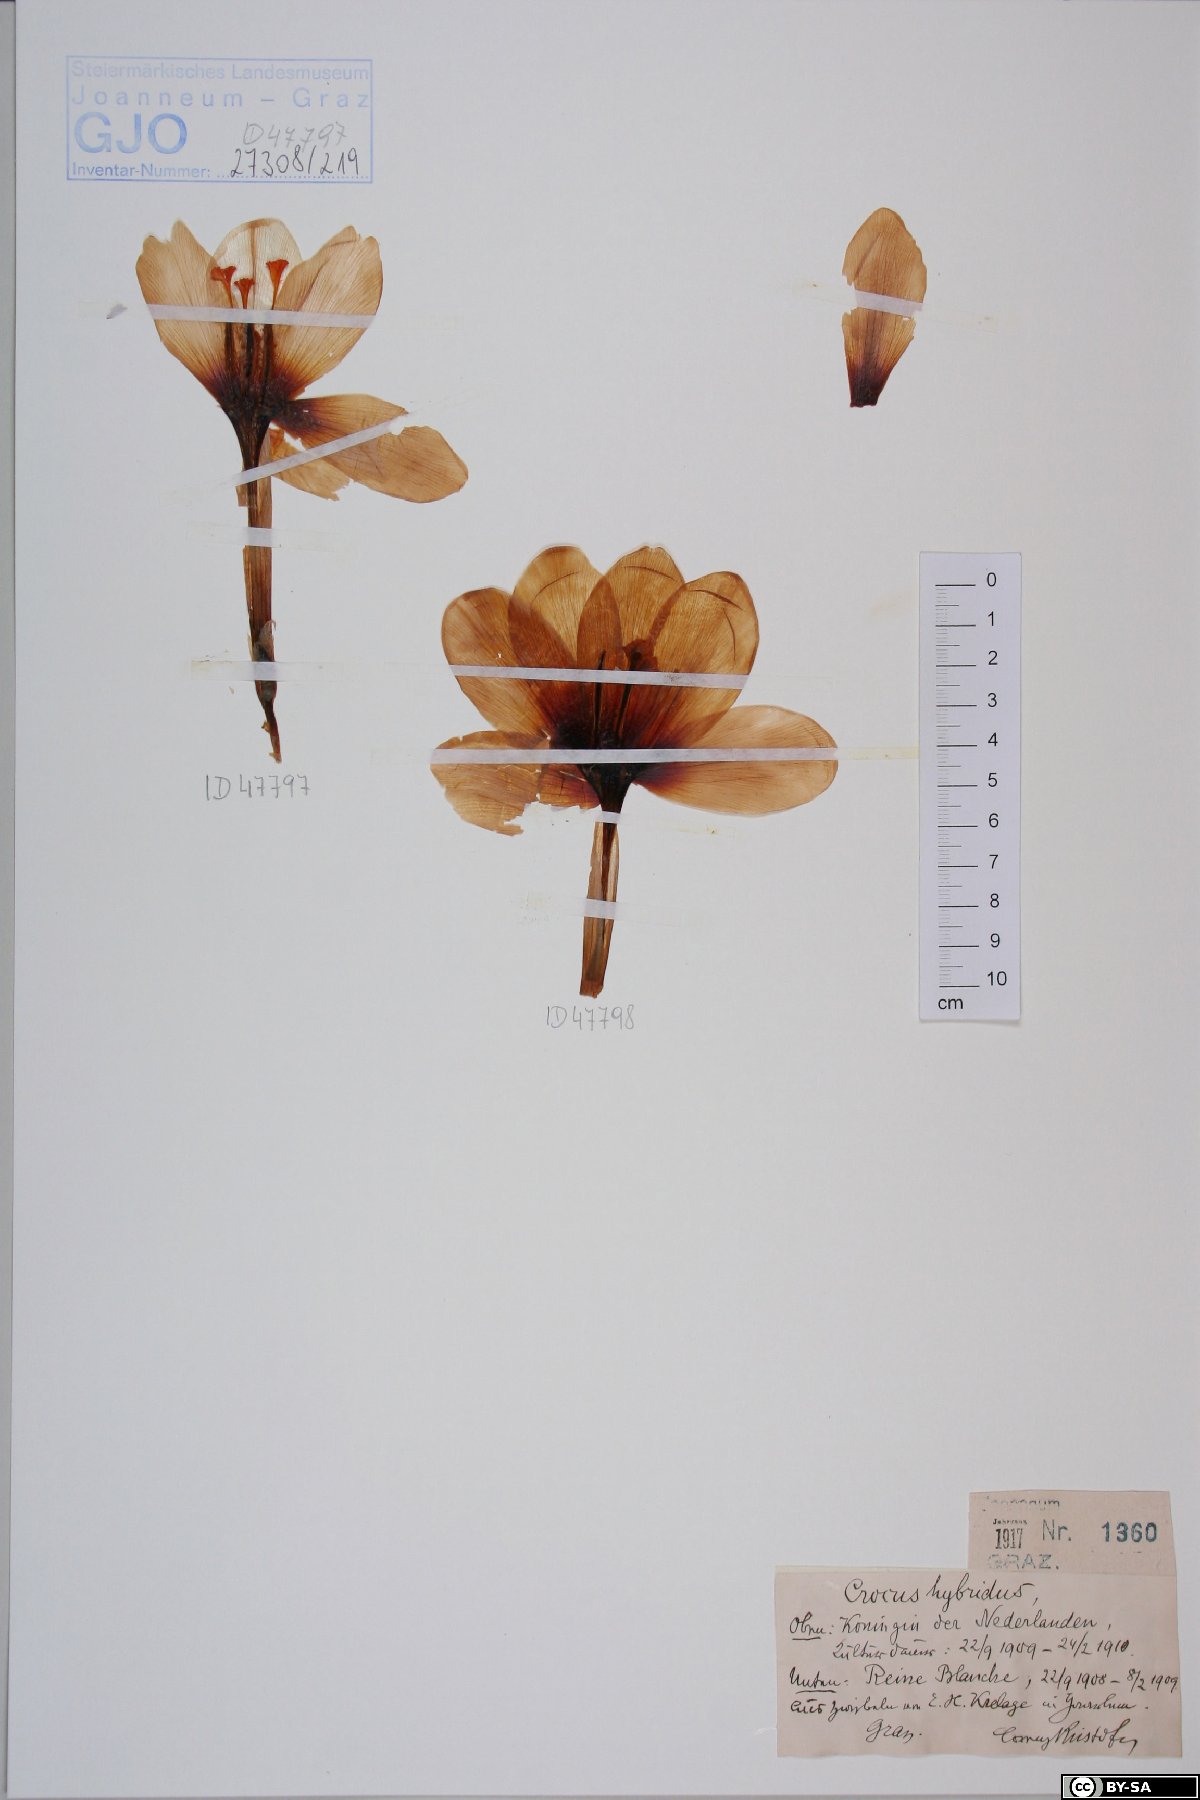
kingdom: Plantae
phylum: Tracheophyta
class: Liliopsida
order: Asparagales
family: Iridaceae
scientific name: Iridaceae
